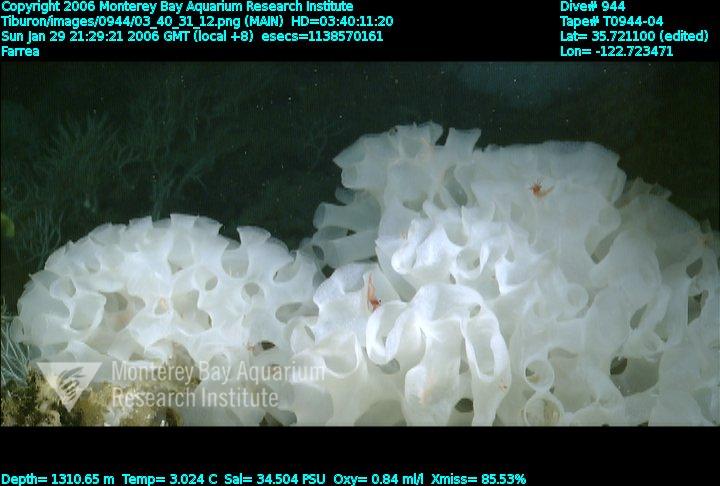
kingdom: Animalia
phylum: Porifera
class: Hexactinellida
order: Sceptrulophora
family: Farreidae
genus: Farrea
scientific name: Farrea
